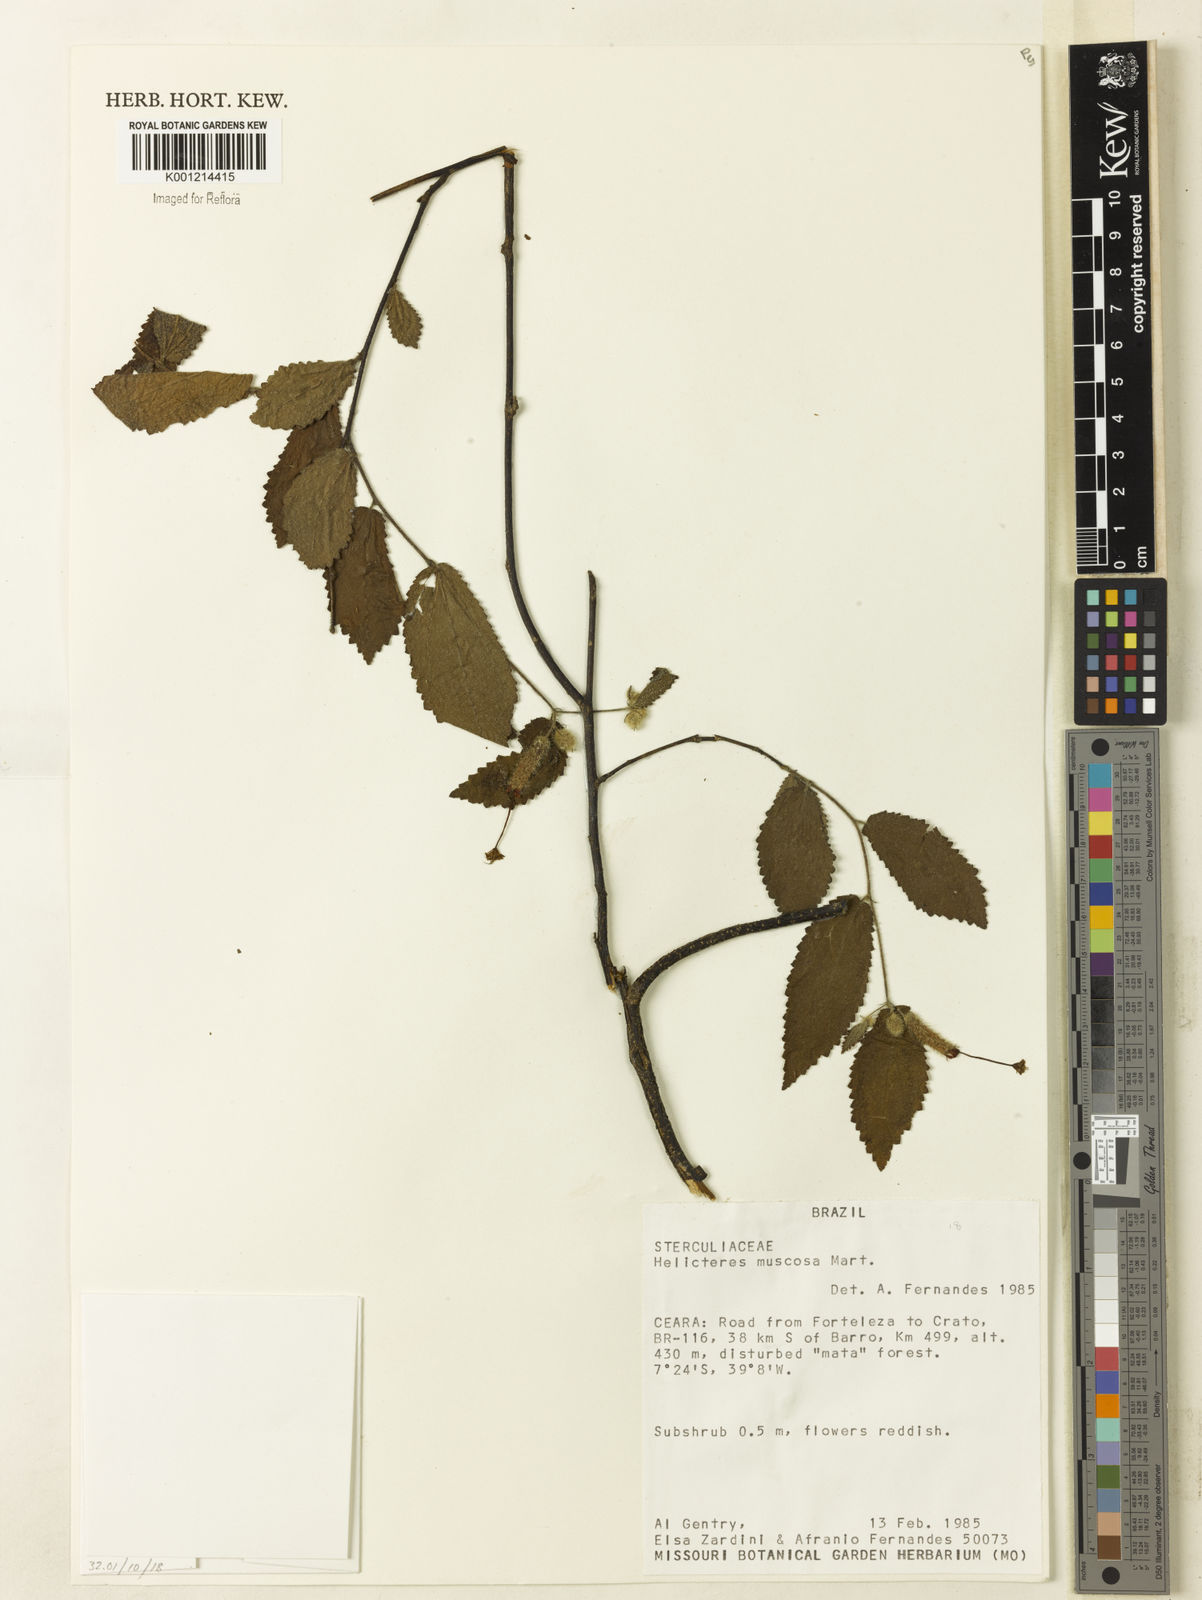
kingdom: Plantae
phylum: Tracheophyta
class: Magnoliopsida
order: Malvales
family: Malvaceae
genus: Helicteres
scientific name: Helicteres muscosa
